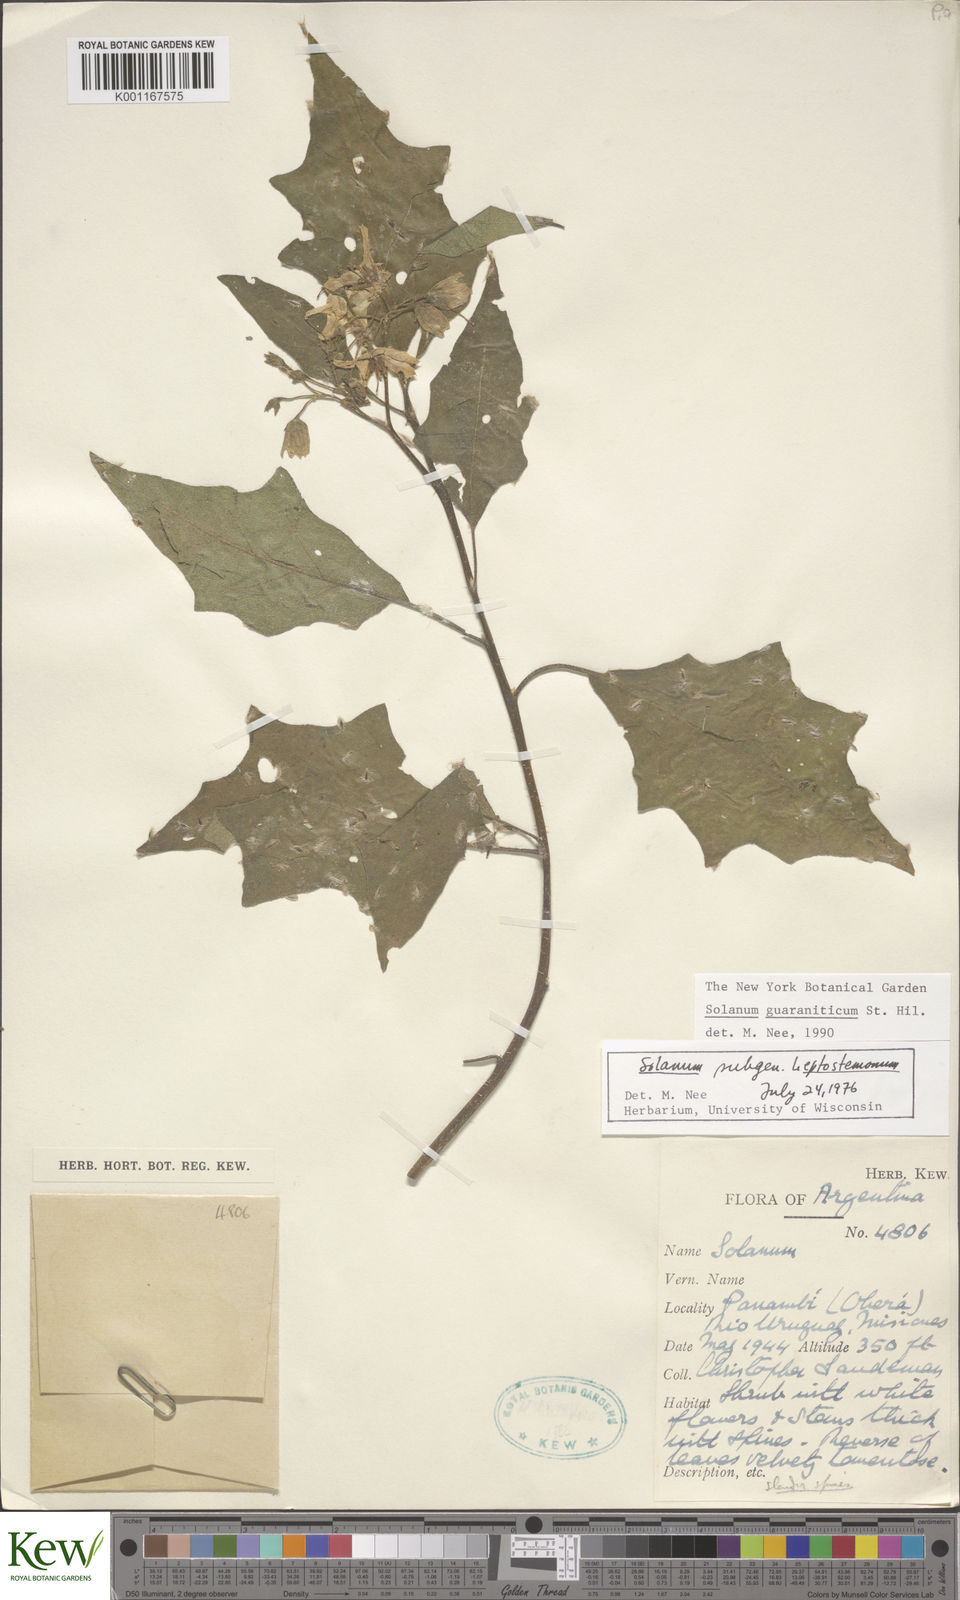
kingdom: Plantae
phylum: Tracheophyta
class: Magnoliopsida
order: Solanales
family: Solanaceae
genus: Solanum
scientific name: Solanum guaraniticum
